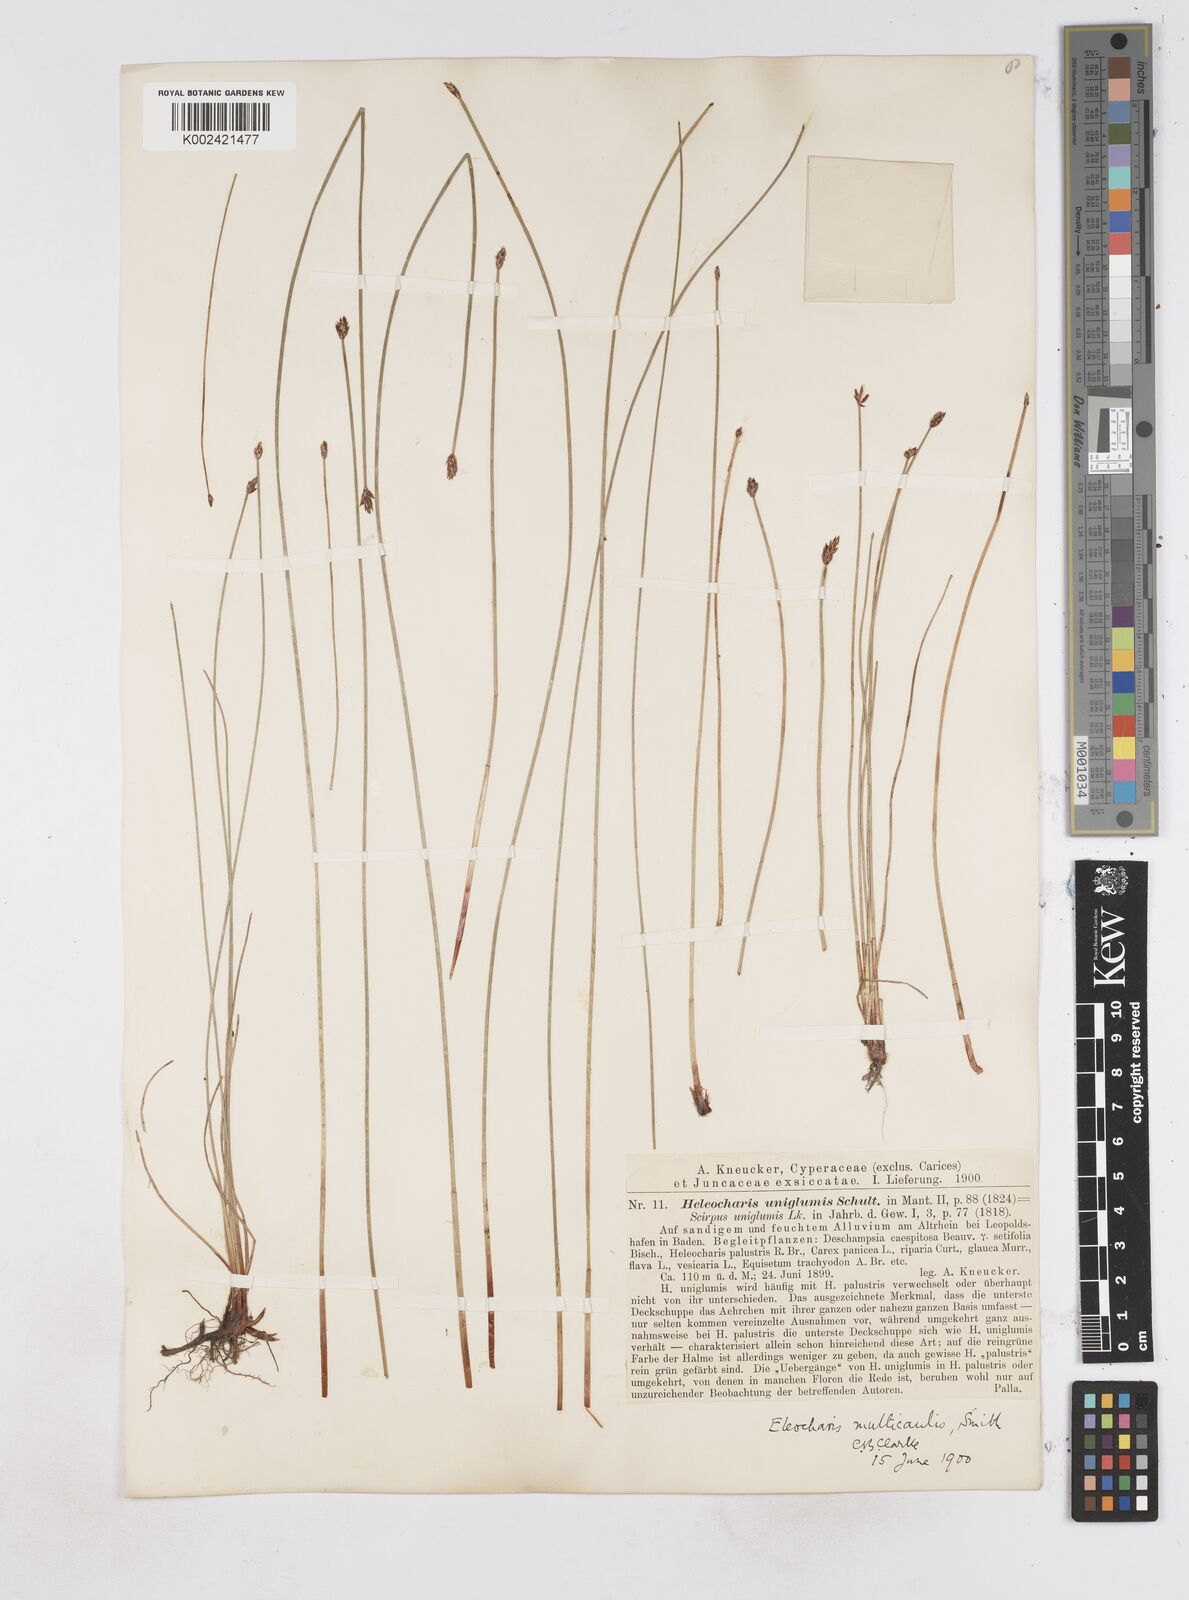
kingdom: Plantae
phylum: Tracheophyta
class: Liliopsida
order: Poales
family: Cyperaceae
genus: Eleocharis
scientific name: Eleocharis uniglumis
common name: Slender spike-rush
